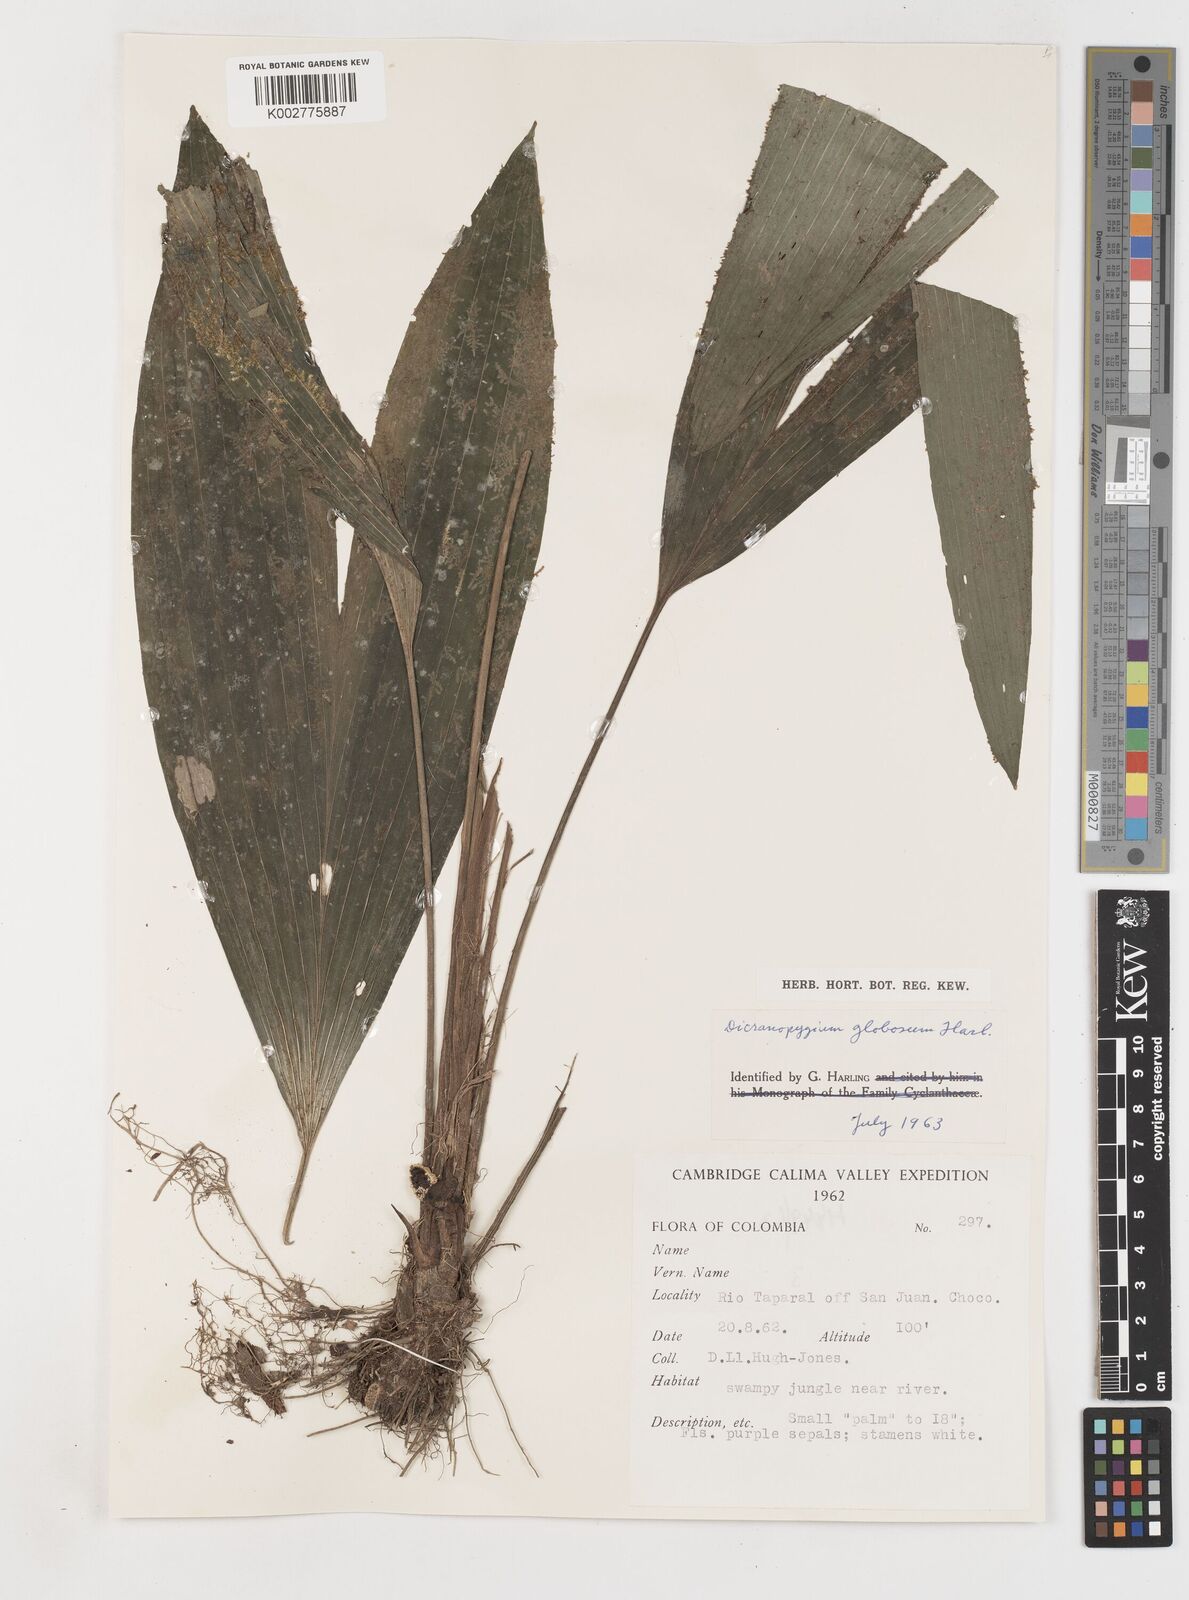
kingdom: Plantae
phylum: Tracheophyta
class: Liliopsida
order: Pandanales
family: Cyclanthaceae
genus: Dicranopygium
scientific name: Dicranopygium globosum
